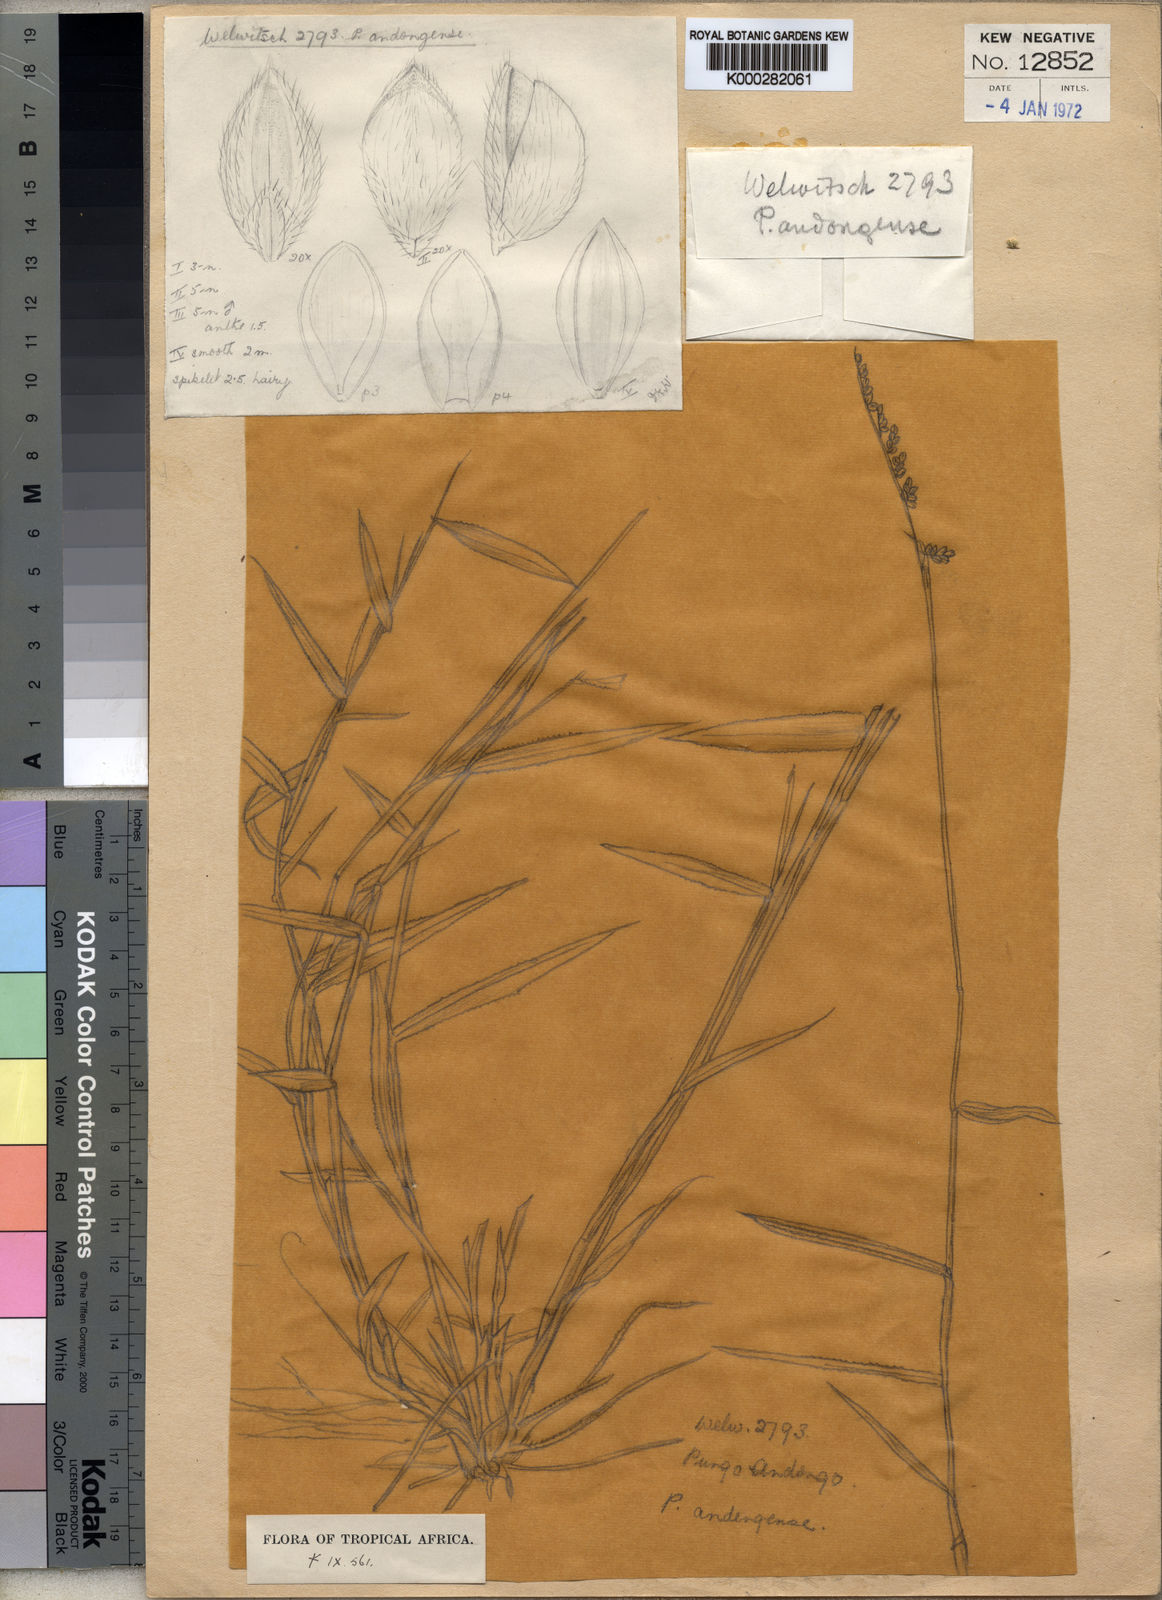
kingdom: Plantae
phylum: Tracheophyta
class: Liliopsida
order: Poales
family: Poaceae
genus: Urochloa
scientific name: Urochloa serrata
